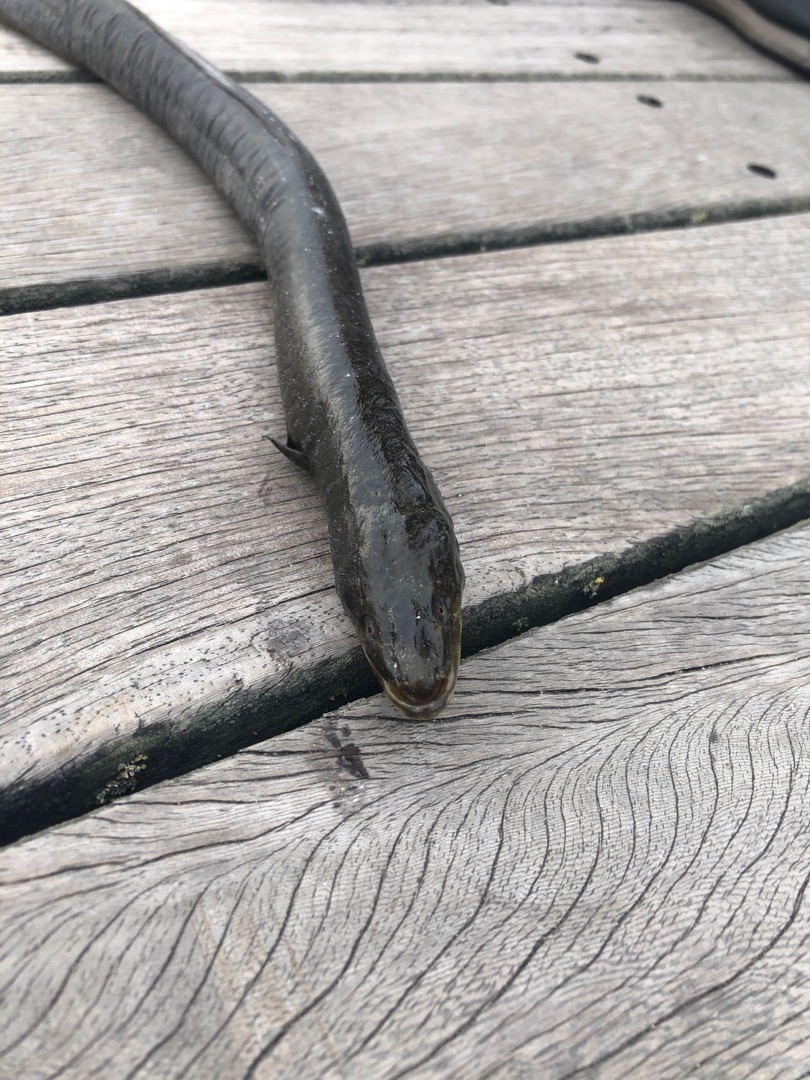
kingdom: Animalia
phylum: Chordata
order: Anguilliformes
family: Anguillidae
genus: Anguilla
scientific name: Anguilla anguilla
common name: Europæisk ål
